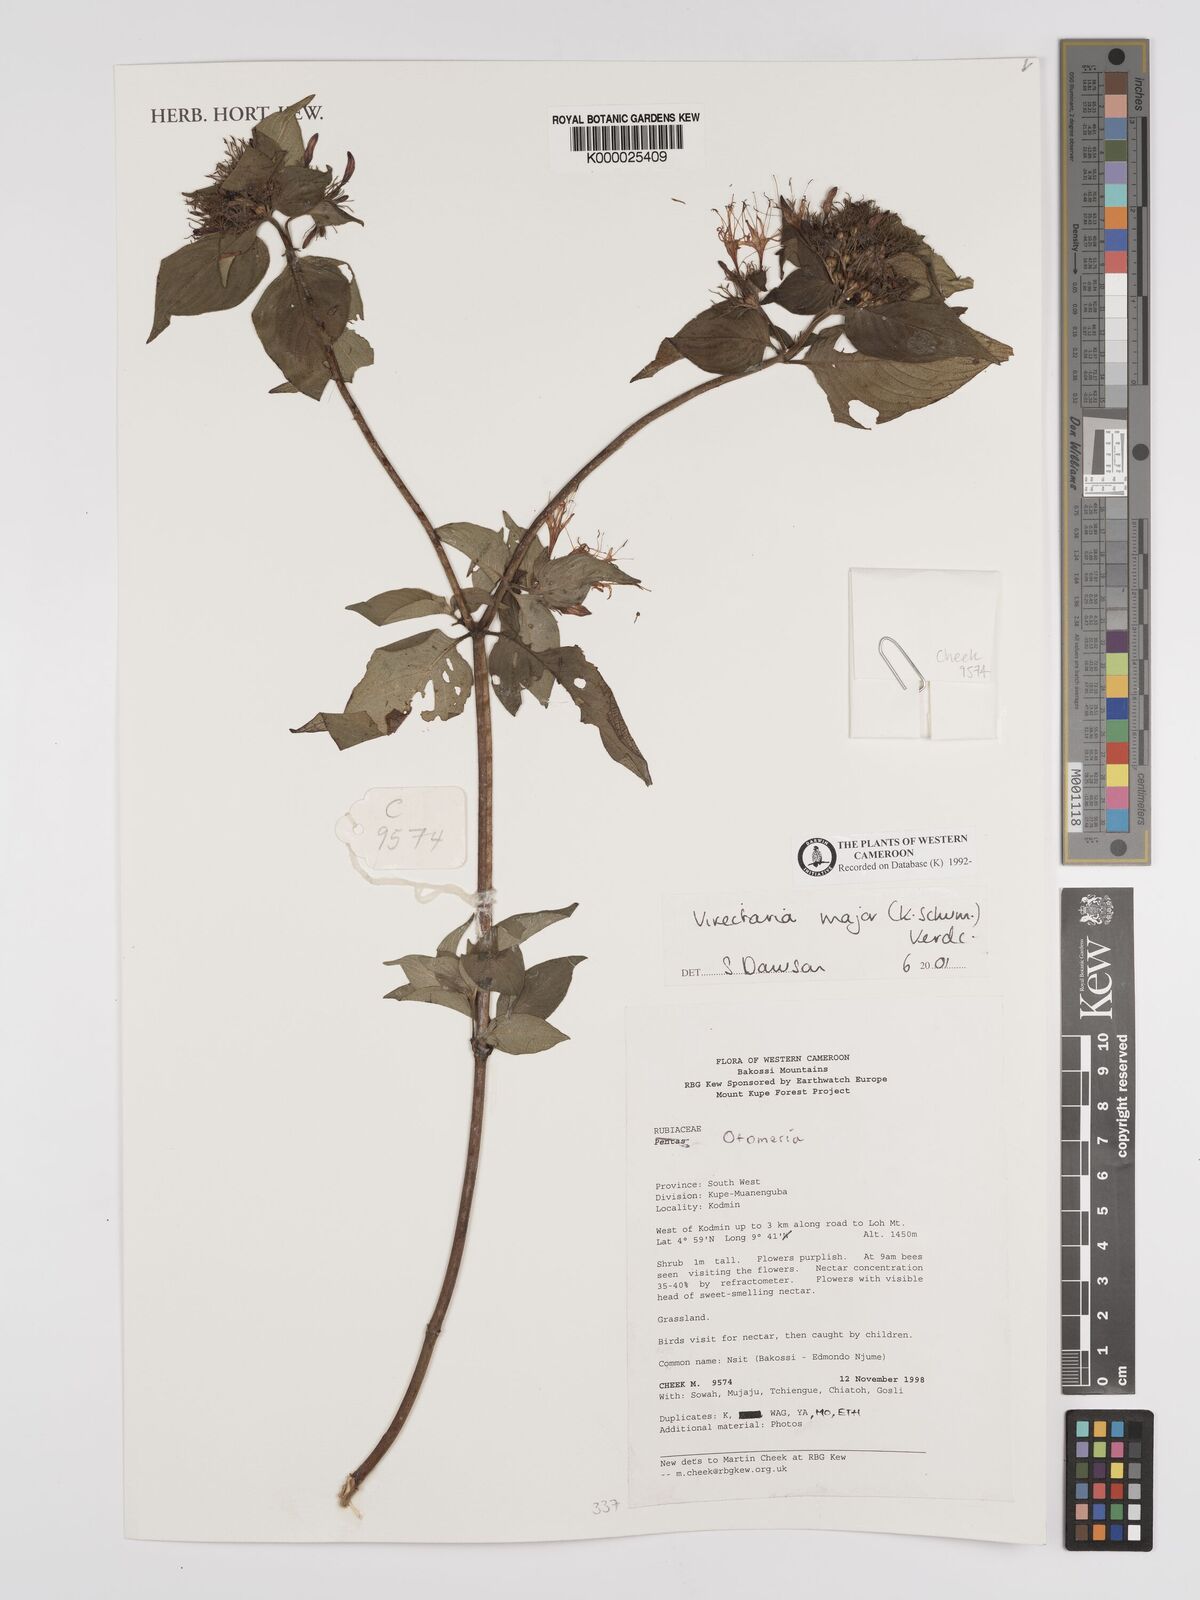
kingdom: Plantae
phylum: Tracheophyta
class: Magnoliopsida
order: Gentianales
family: Rubiaceae
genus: Virectaria
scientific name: Virectaria major
